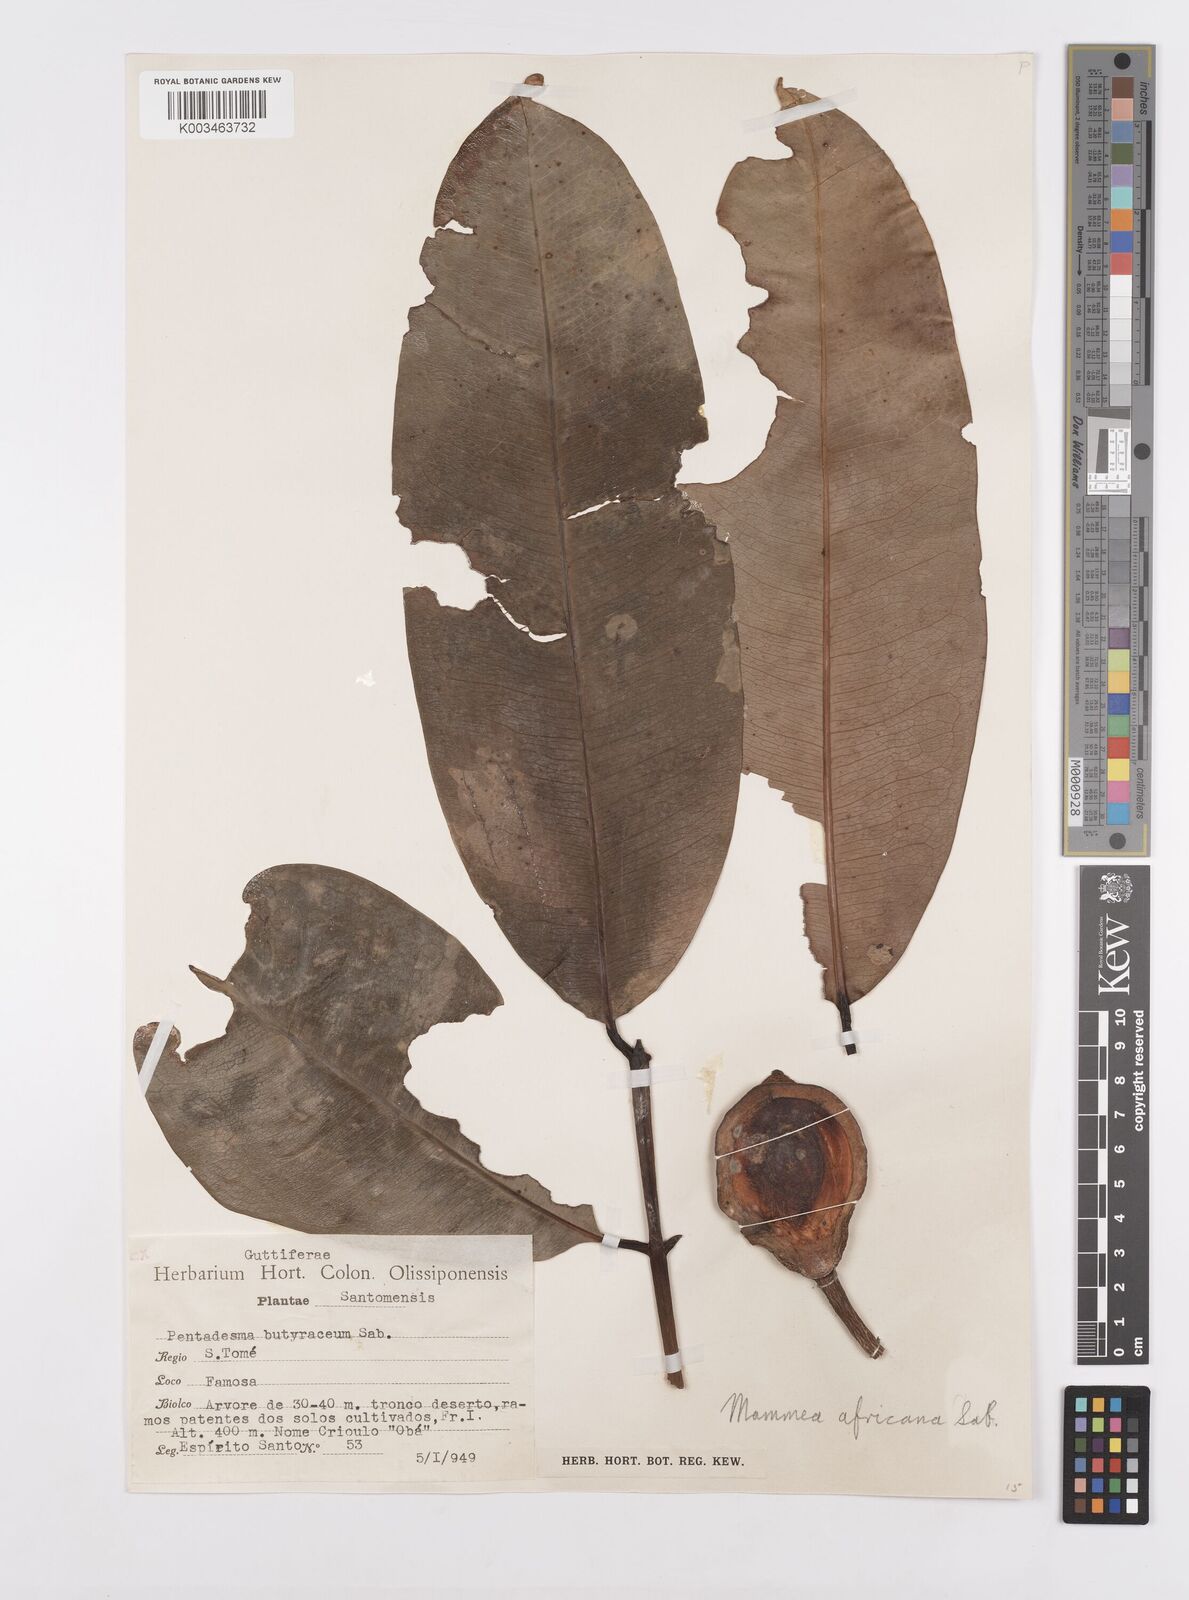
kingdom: Plantae
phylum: Tracheophyta
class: Magnoliopsida
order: Malpighiales
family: Calophyllaceae
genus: Mammea
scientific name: Mammea africana
